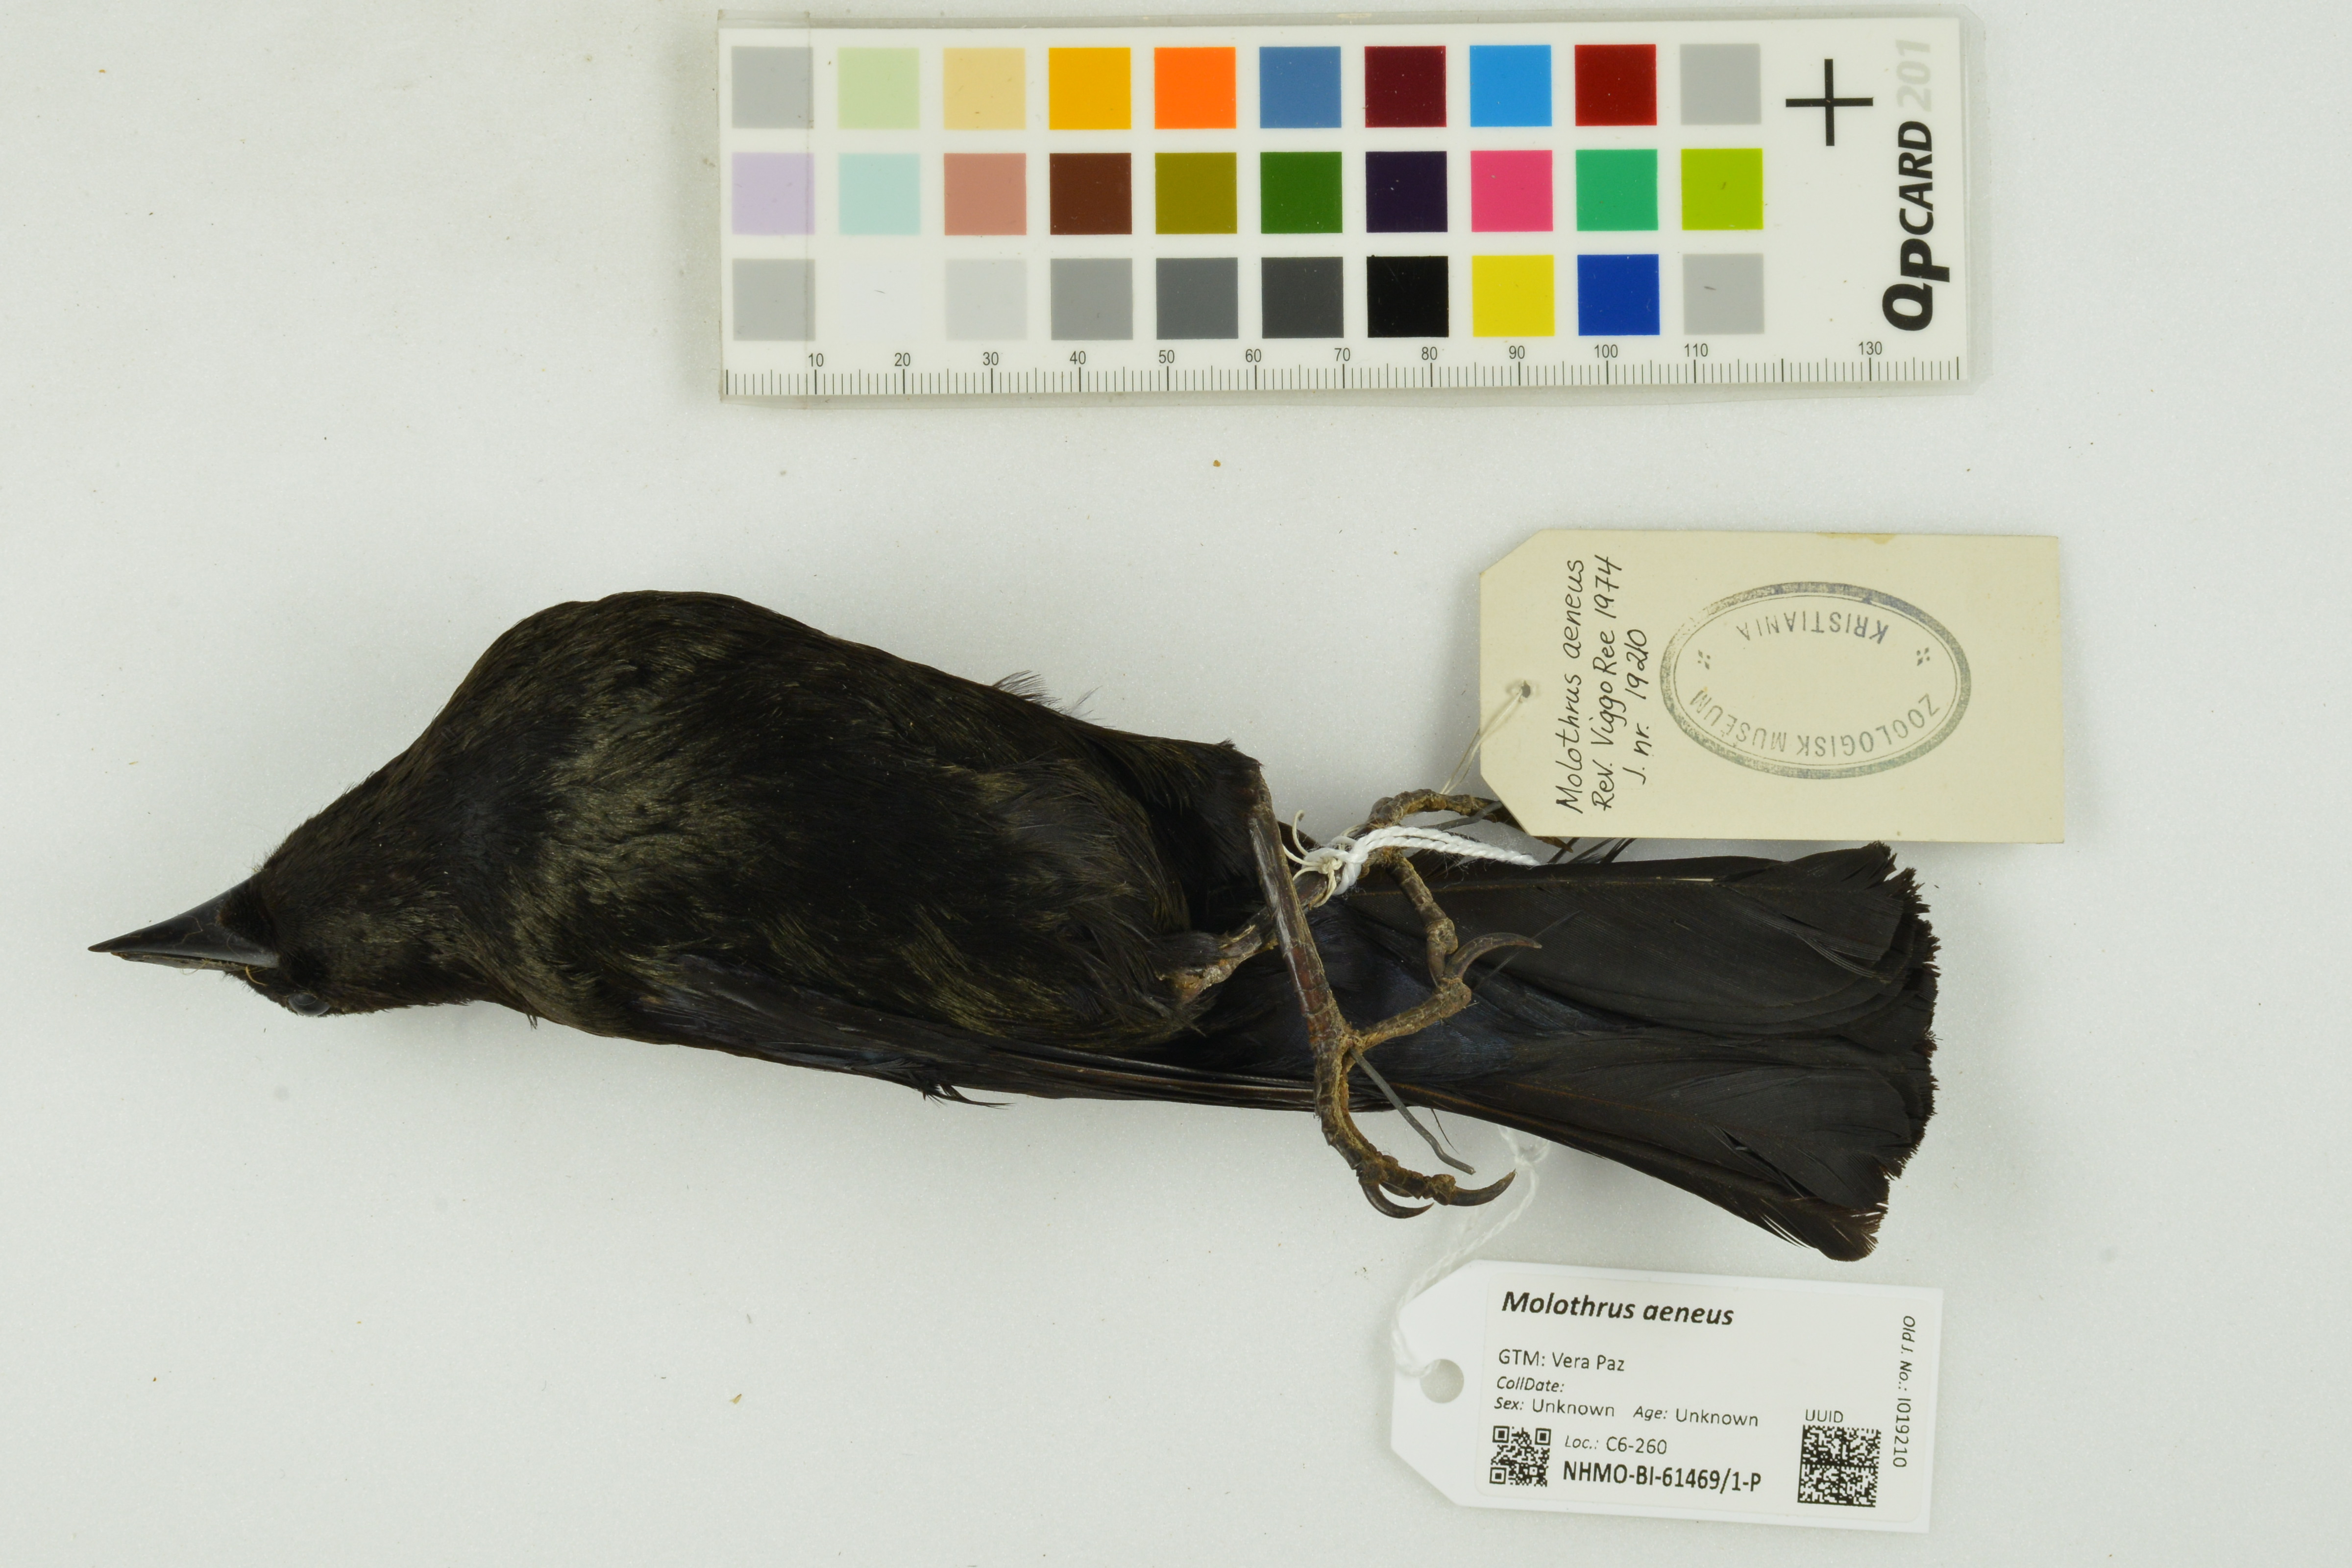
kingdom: Animalia
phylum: Chordata
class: Aves
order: Passeriformes
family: Icteridae
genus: Molothrus
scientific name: Molothrus aeneus
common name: Bronzed cowbird
